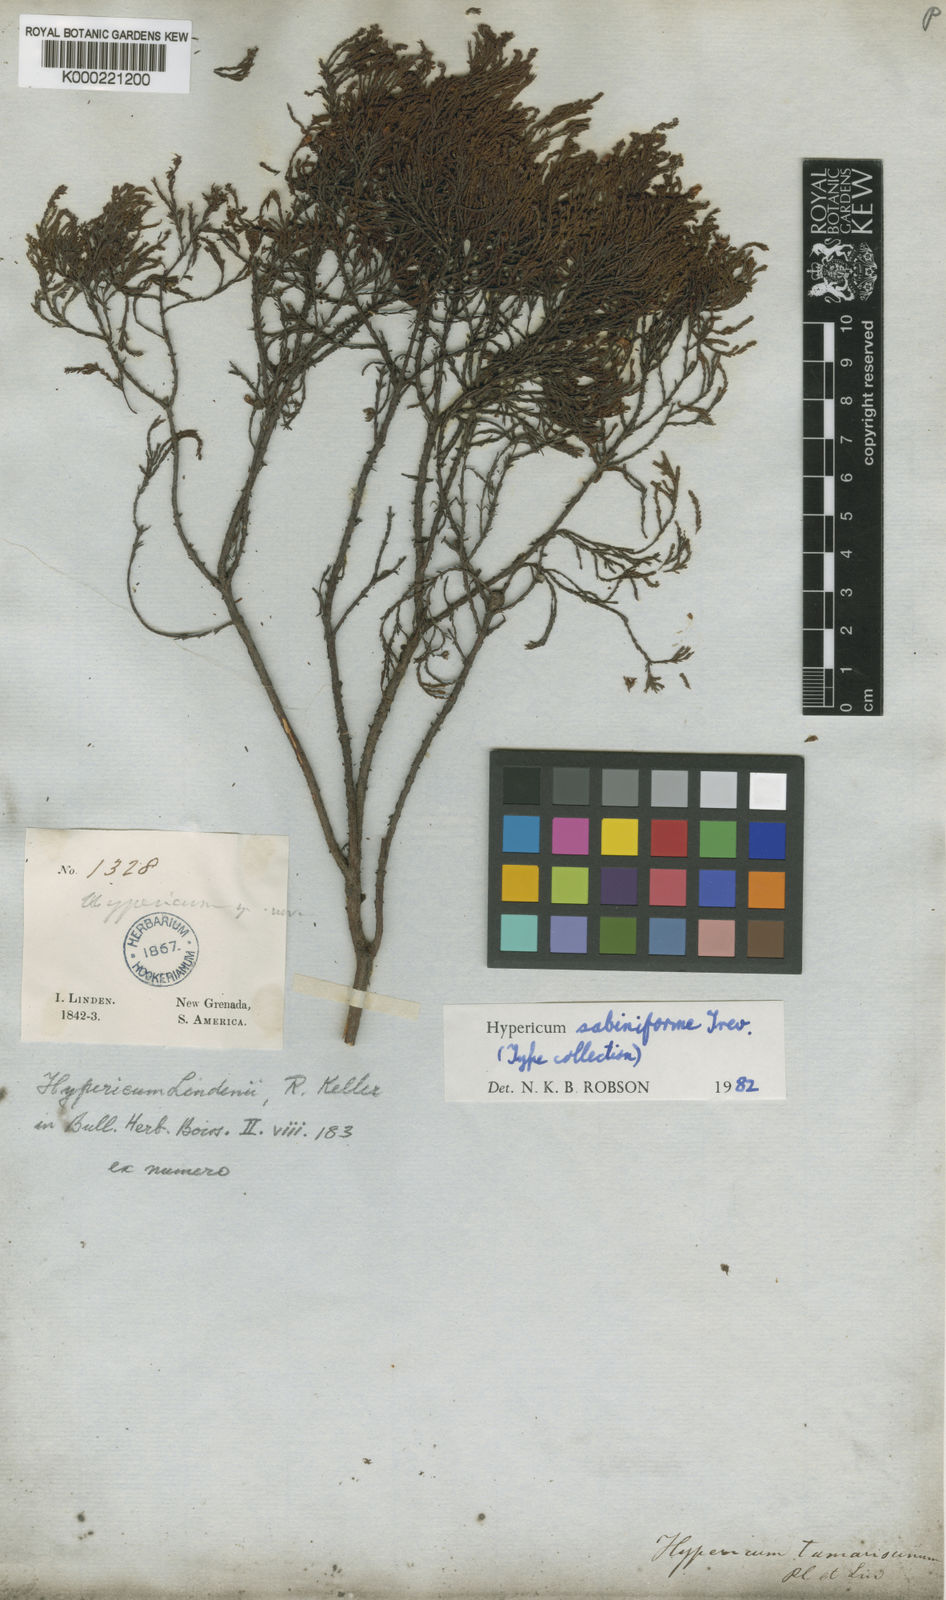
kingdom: Plantae
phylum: Tracheophyta
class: Magnoliopsida
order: Malpighiales
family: Hypericaceae
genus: Hypericum
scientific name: Hypericum sabiniforme
